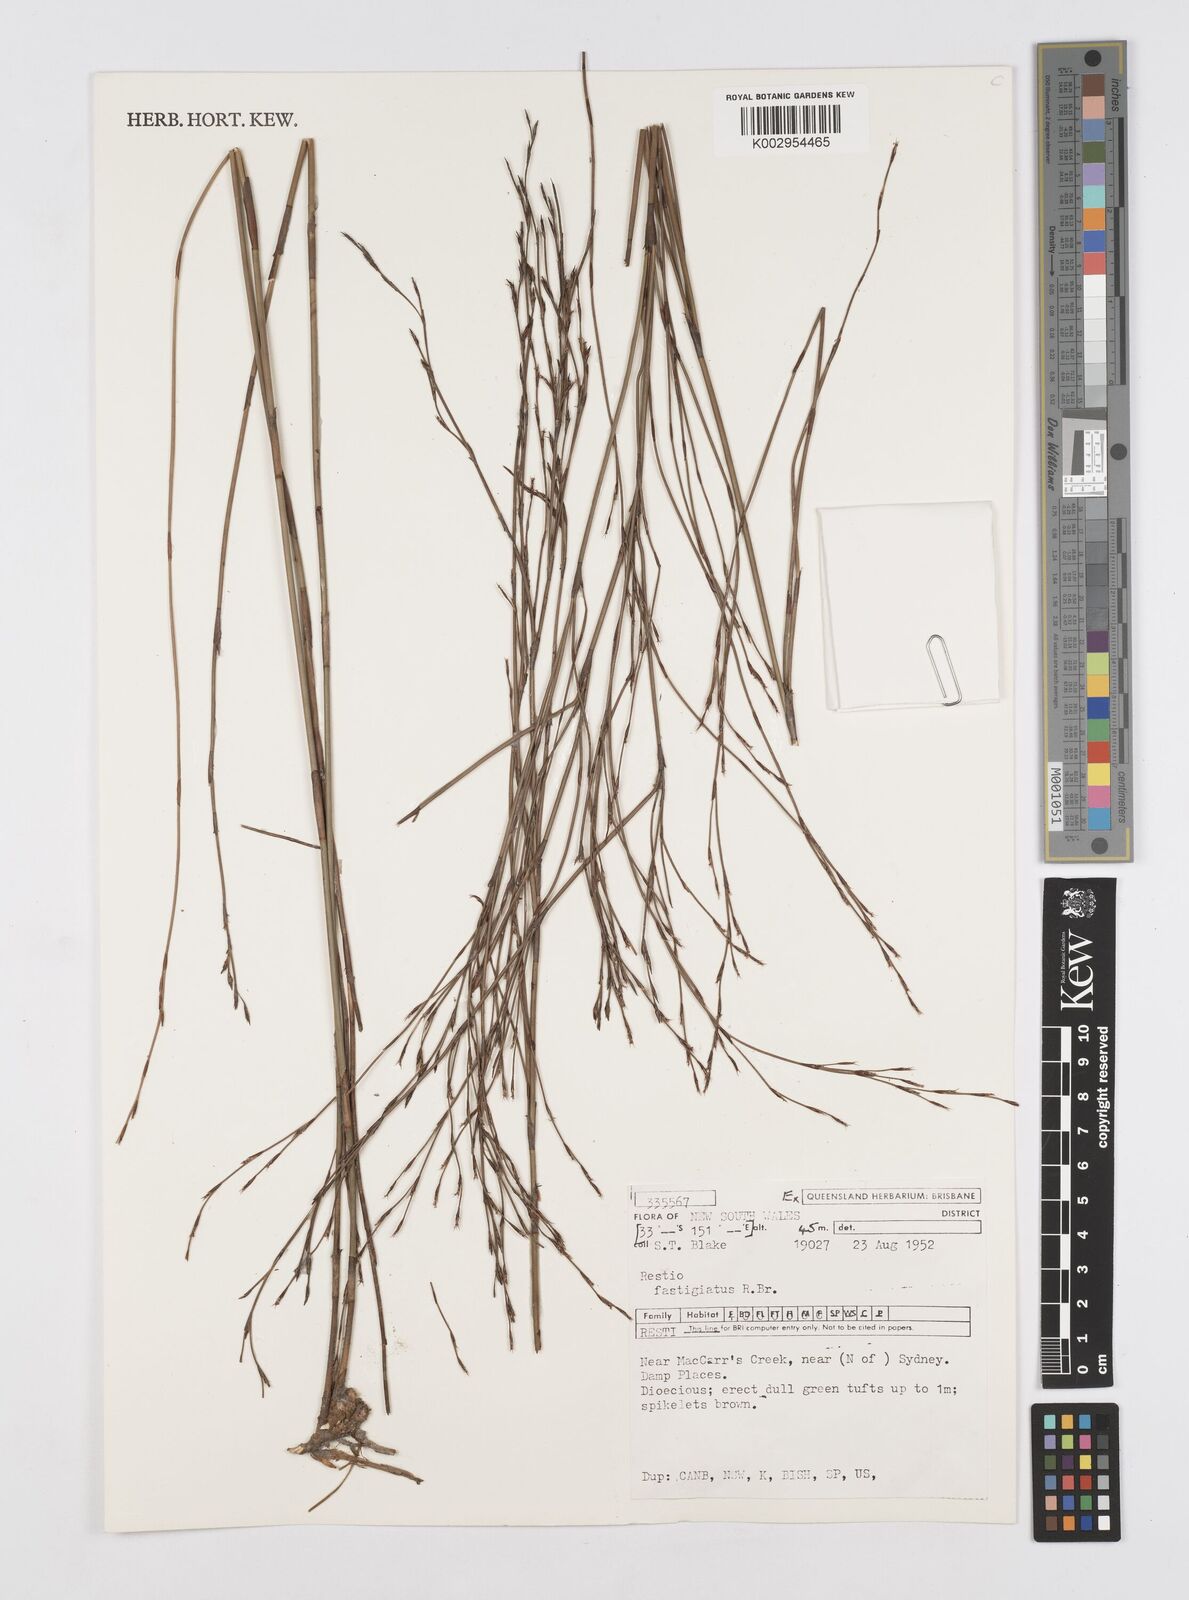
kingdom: Plantae
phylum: Tracheophyta
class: Liliopsida
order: Poales
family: Restionaceae
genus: Chordifex
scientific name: Chordifex fastigiatus
